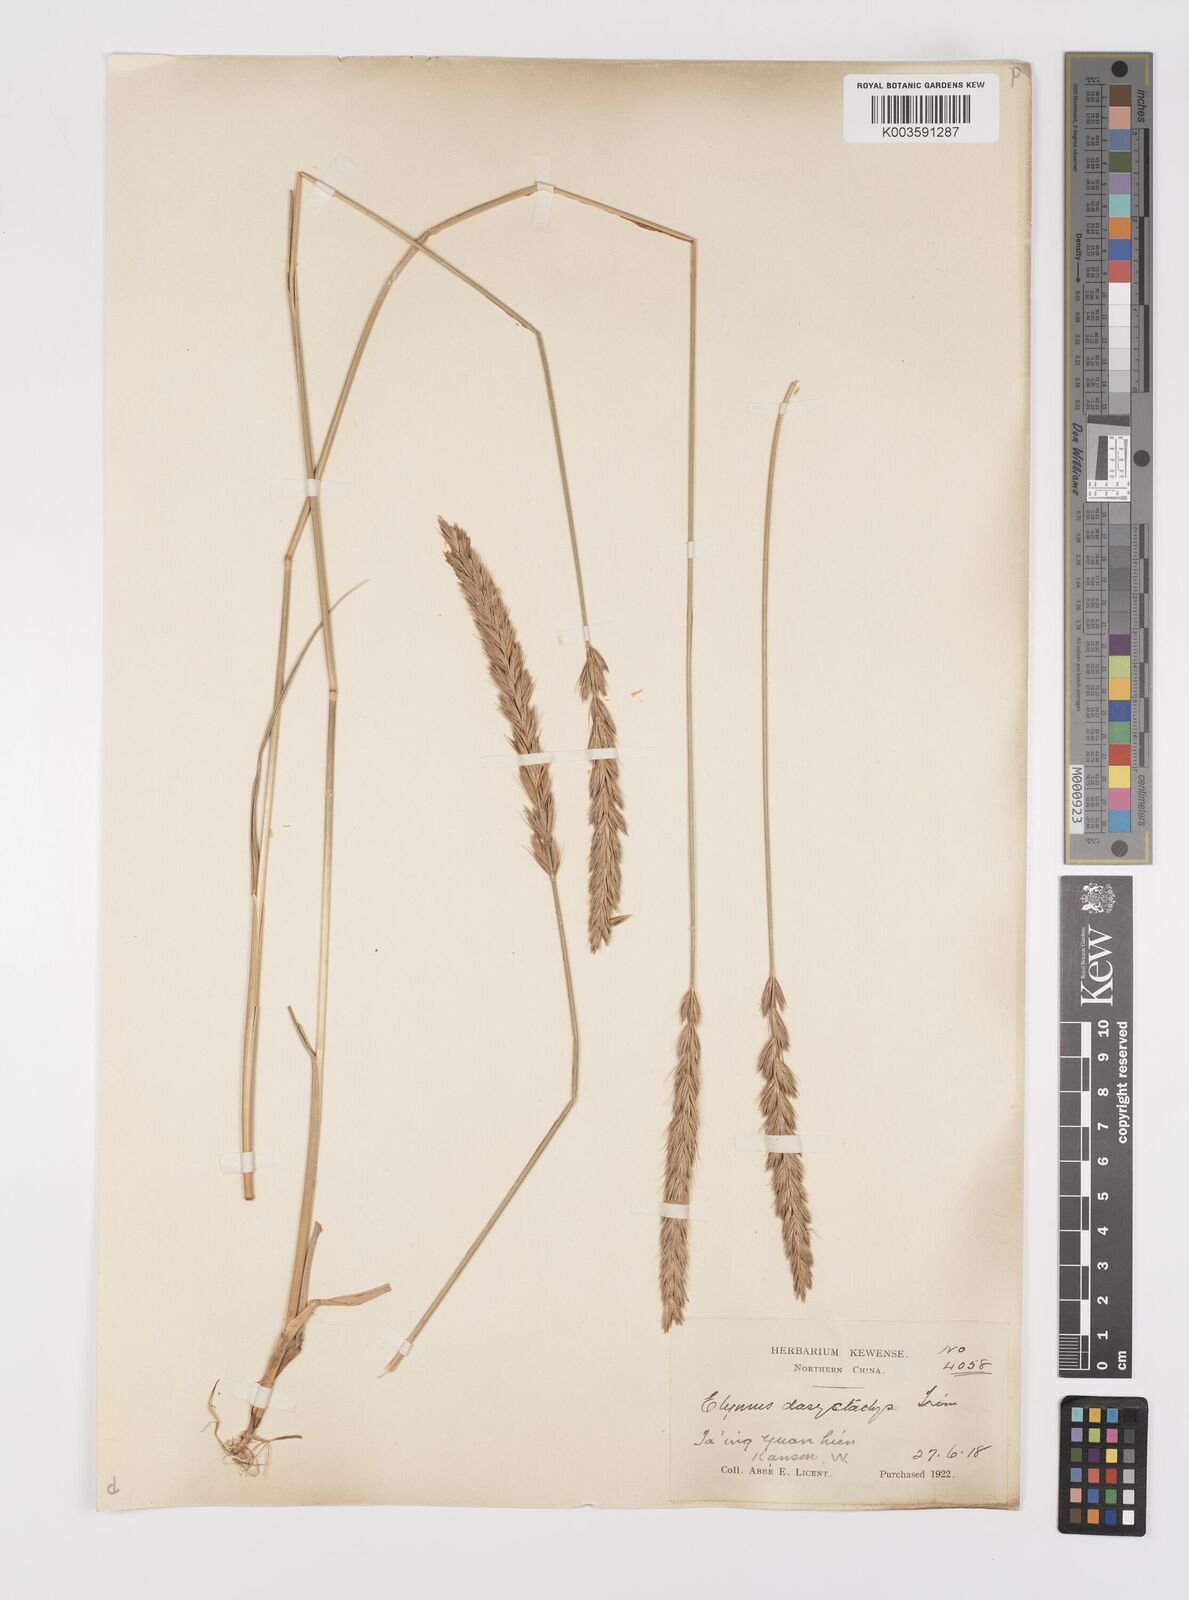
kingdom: Plantae
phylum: Tracheophyta
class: Liliopsida
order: Poales
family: Poaceae
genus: Leymus
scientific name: Leymus secalinus
